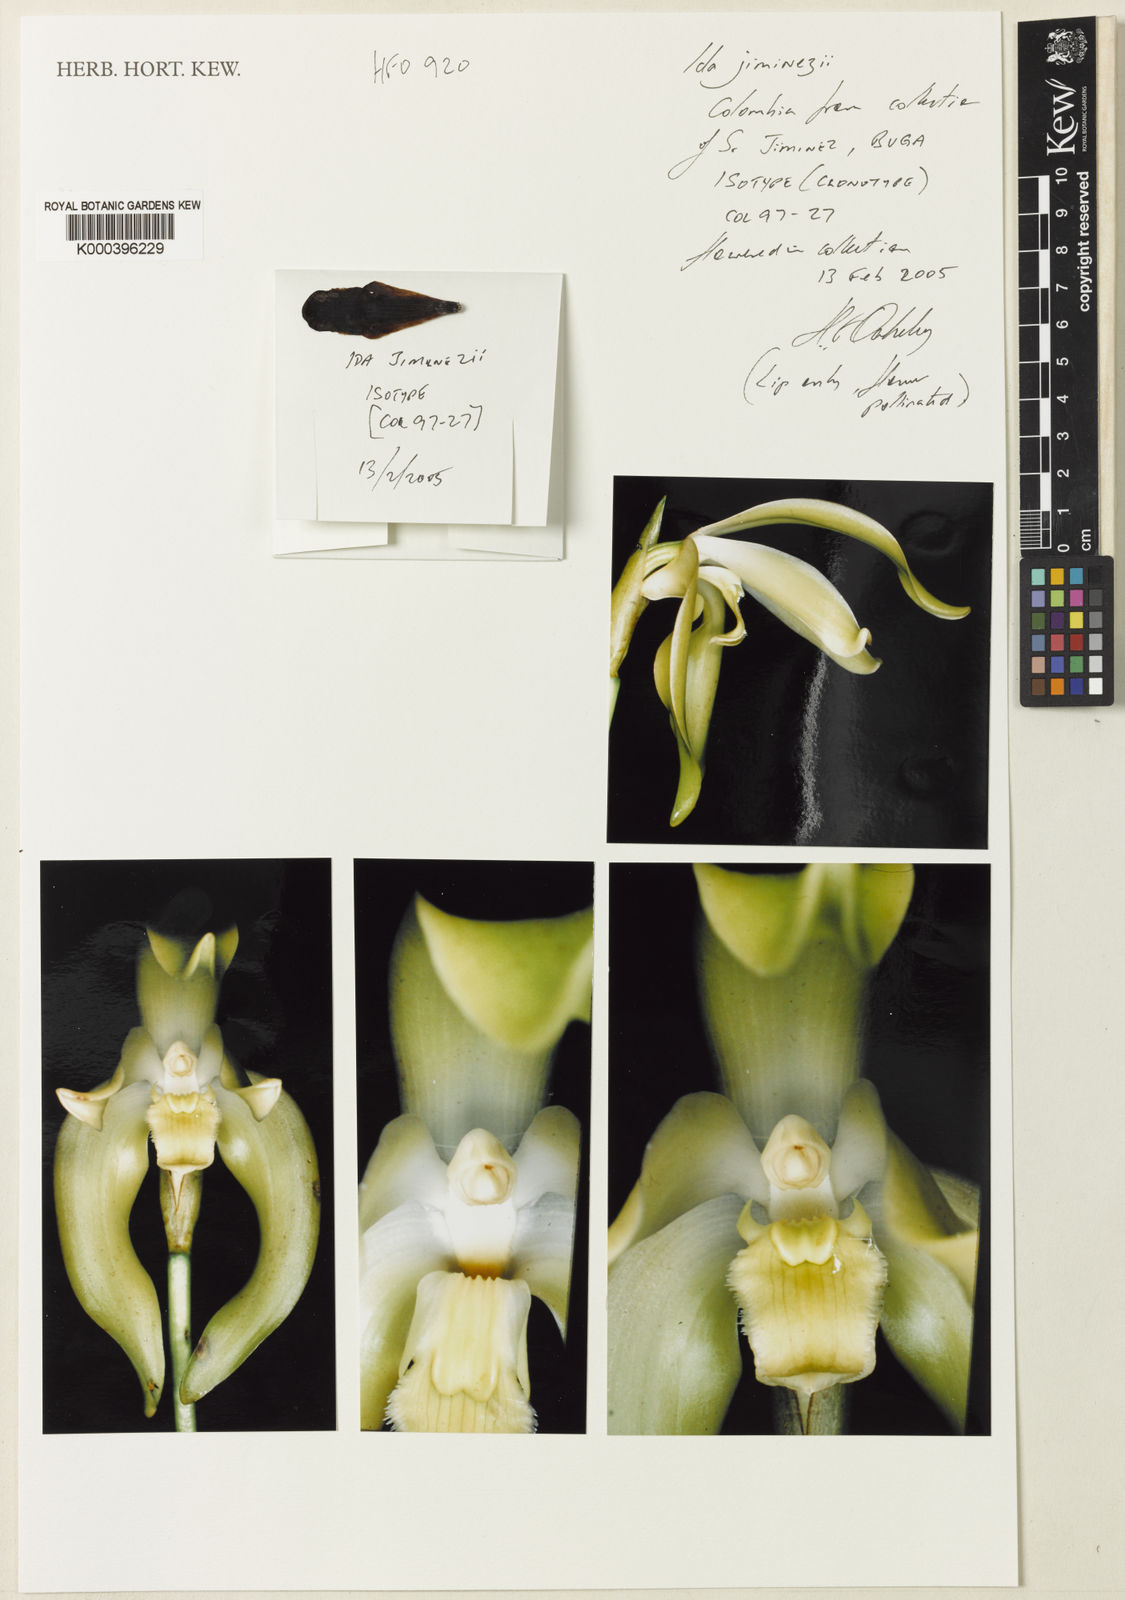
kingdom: Plantae
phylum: Tracheophyta
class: Liliopsida
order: Asparagales
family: Orchidaceae
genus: Ida
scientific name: Ida jimenezii
